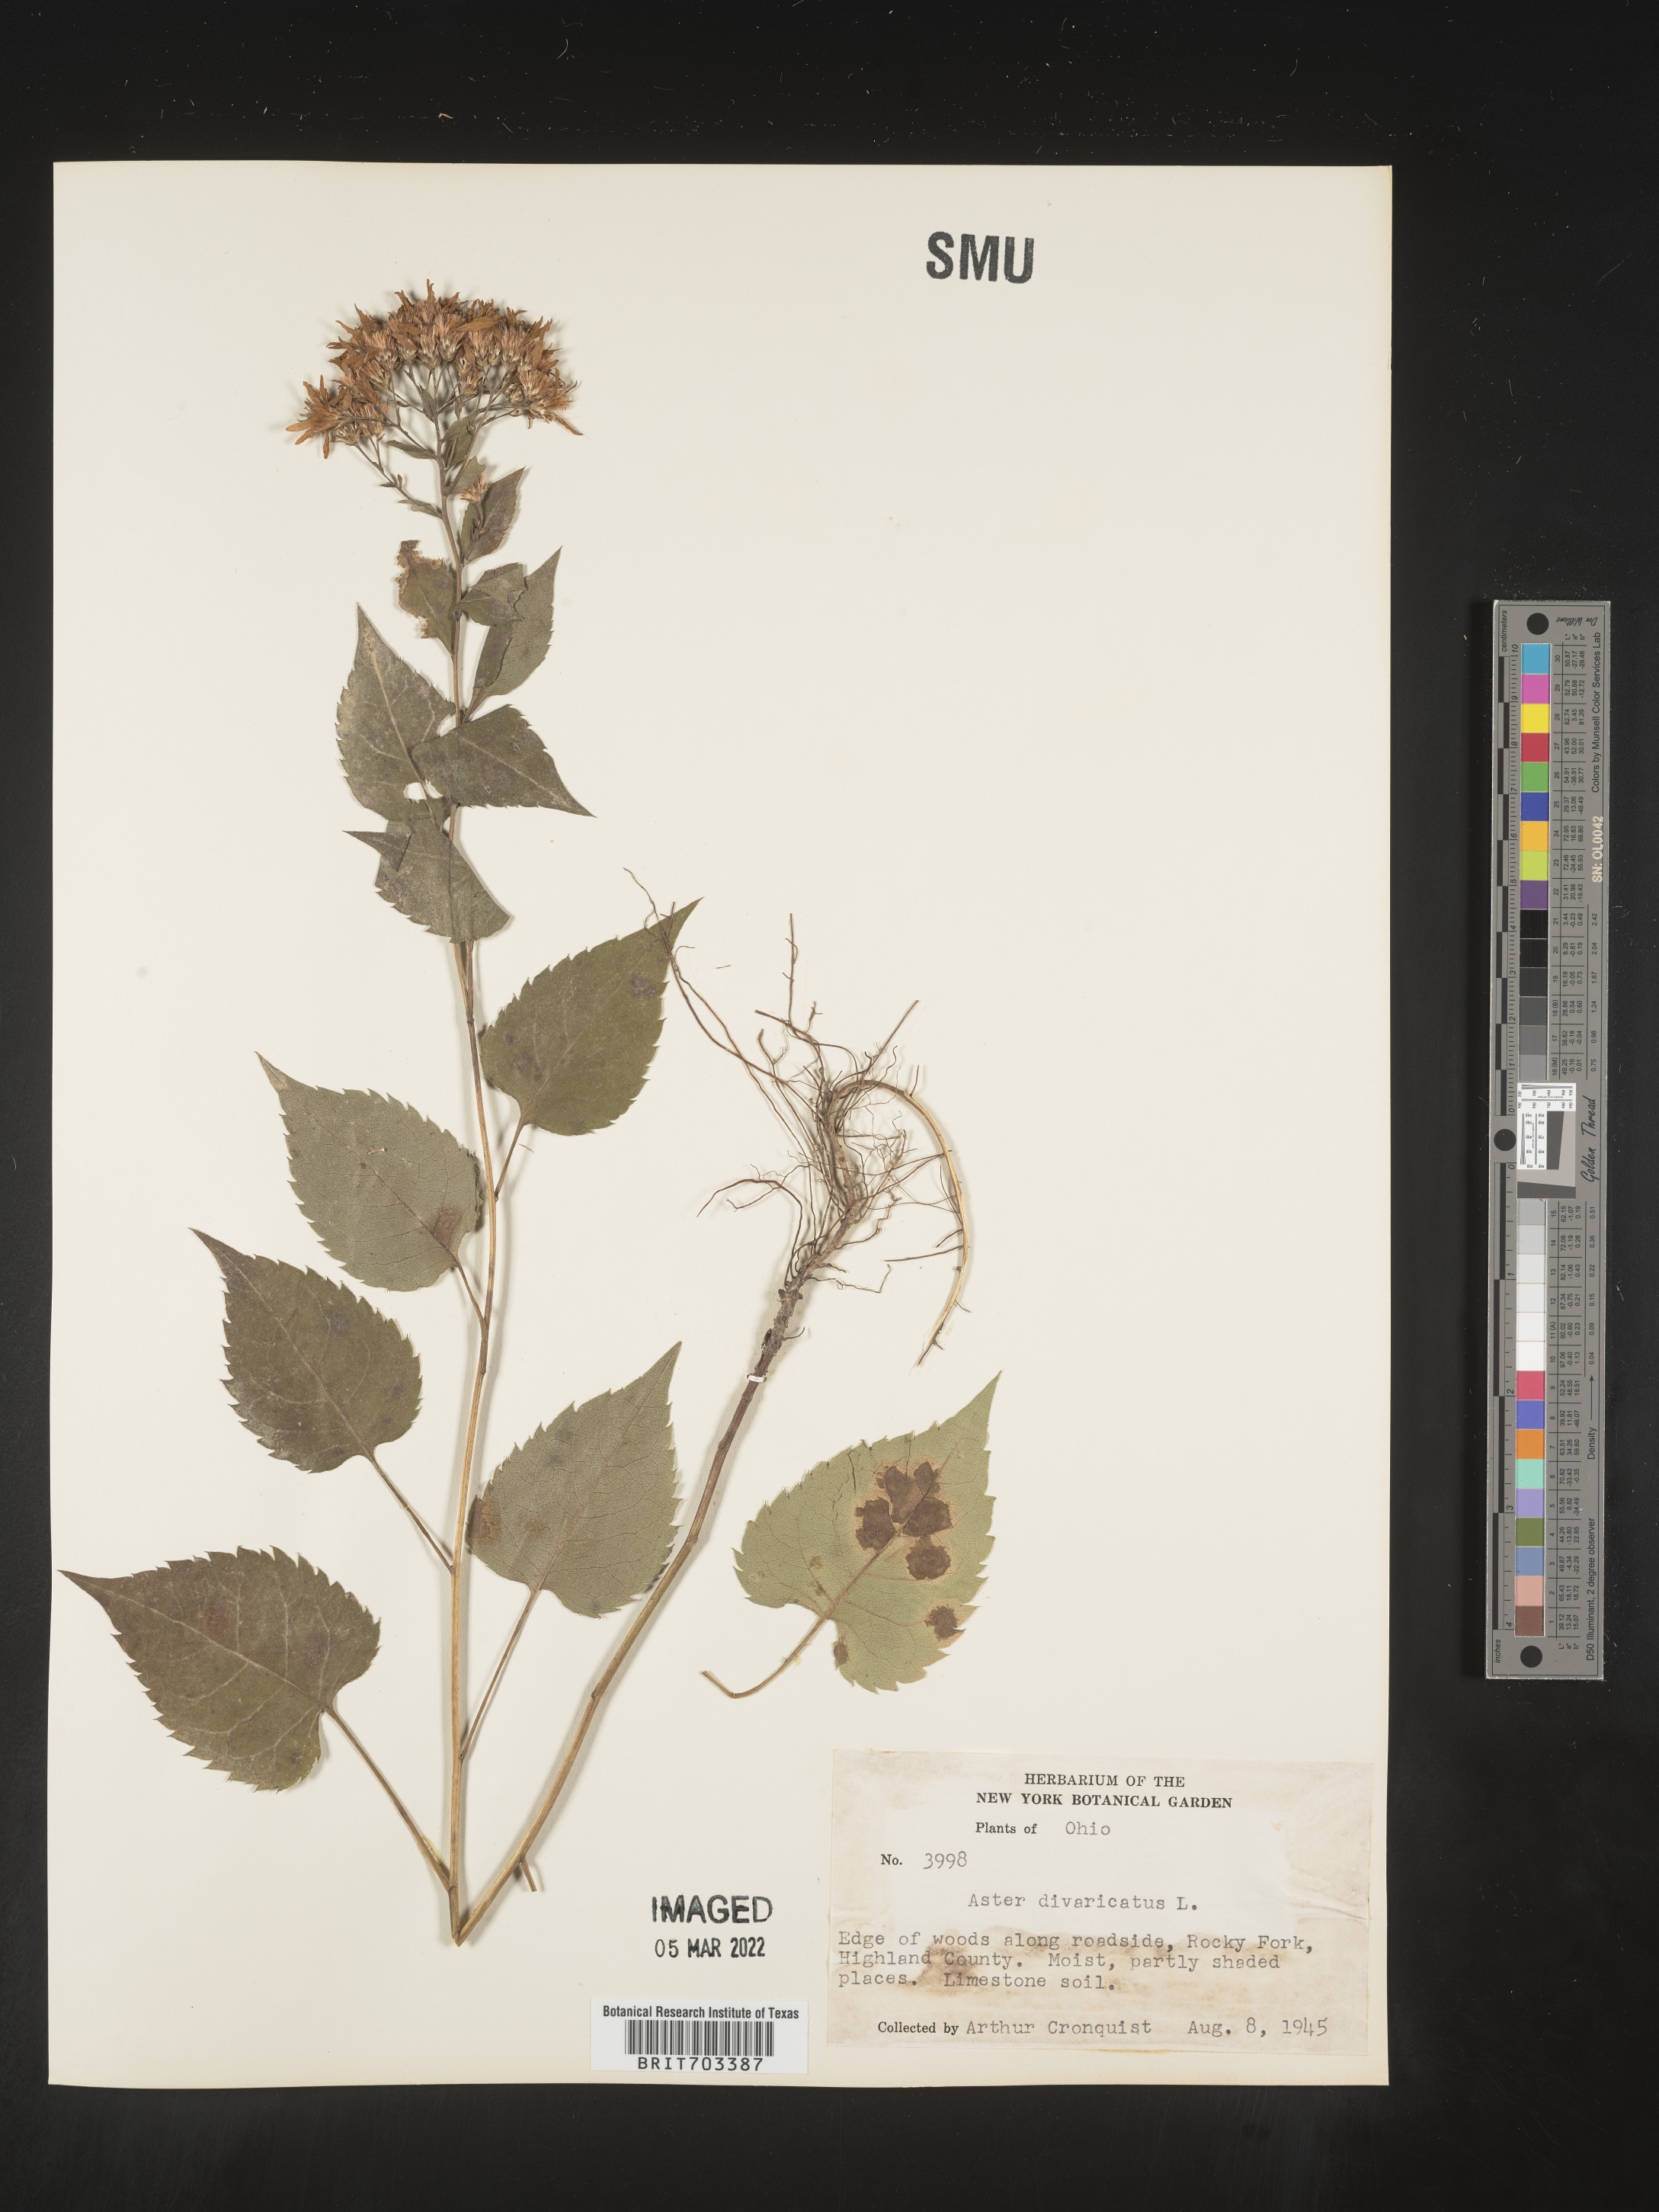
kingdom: Plantae
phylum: Tracheophyta
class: Magnoliopsida
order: Asterales
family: Asteraceae
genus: Eurybia
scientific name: Eurybia divaricata
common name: White wood aster
